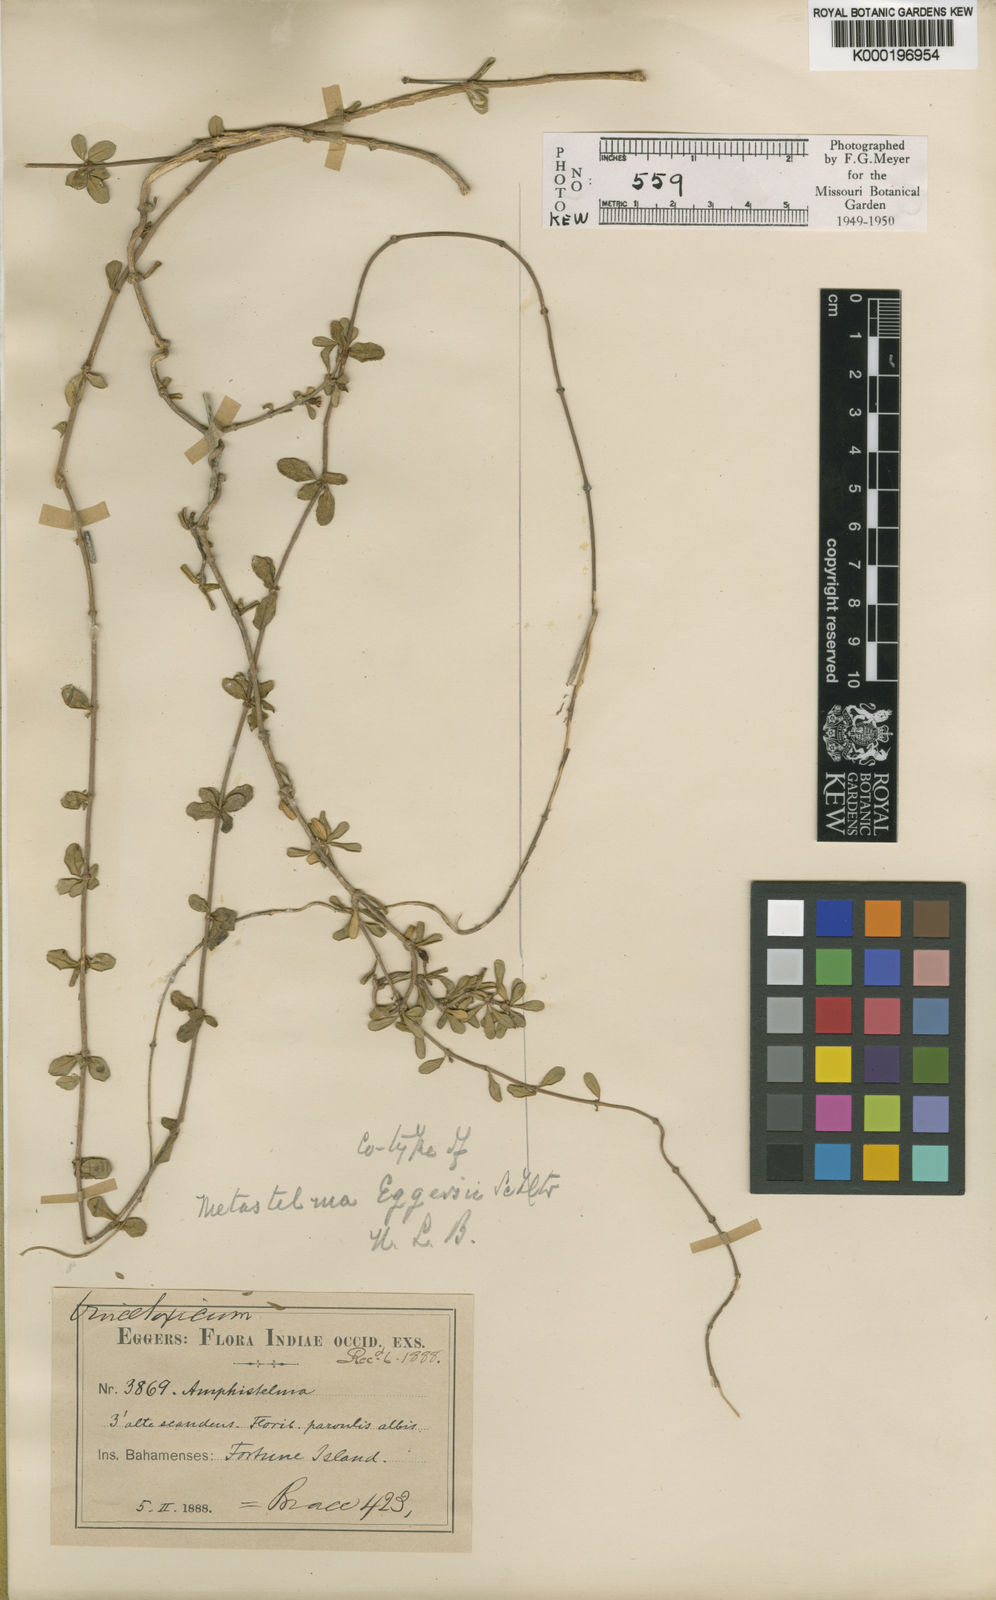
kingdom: Plantae
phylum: Tracheophyta
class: Magnoliopsida
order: Gentianales
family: Apocynaceae
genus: Anemotrochus
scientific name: Anemotrochus eggersii
